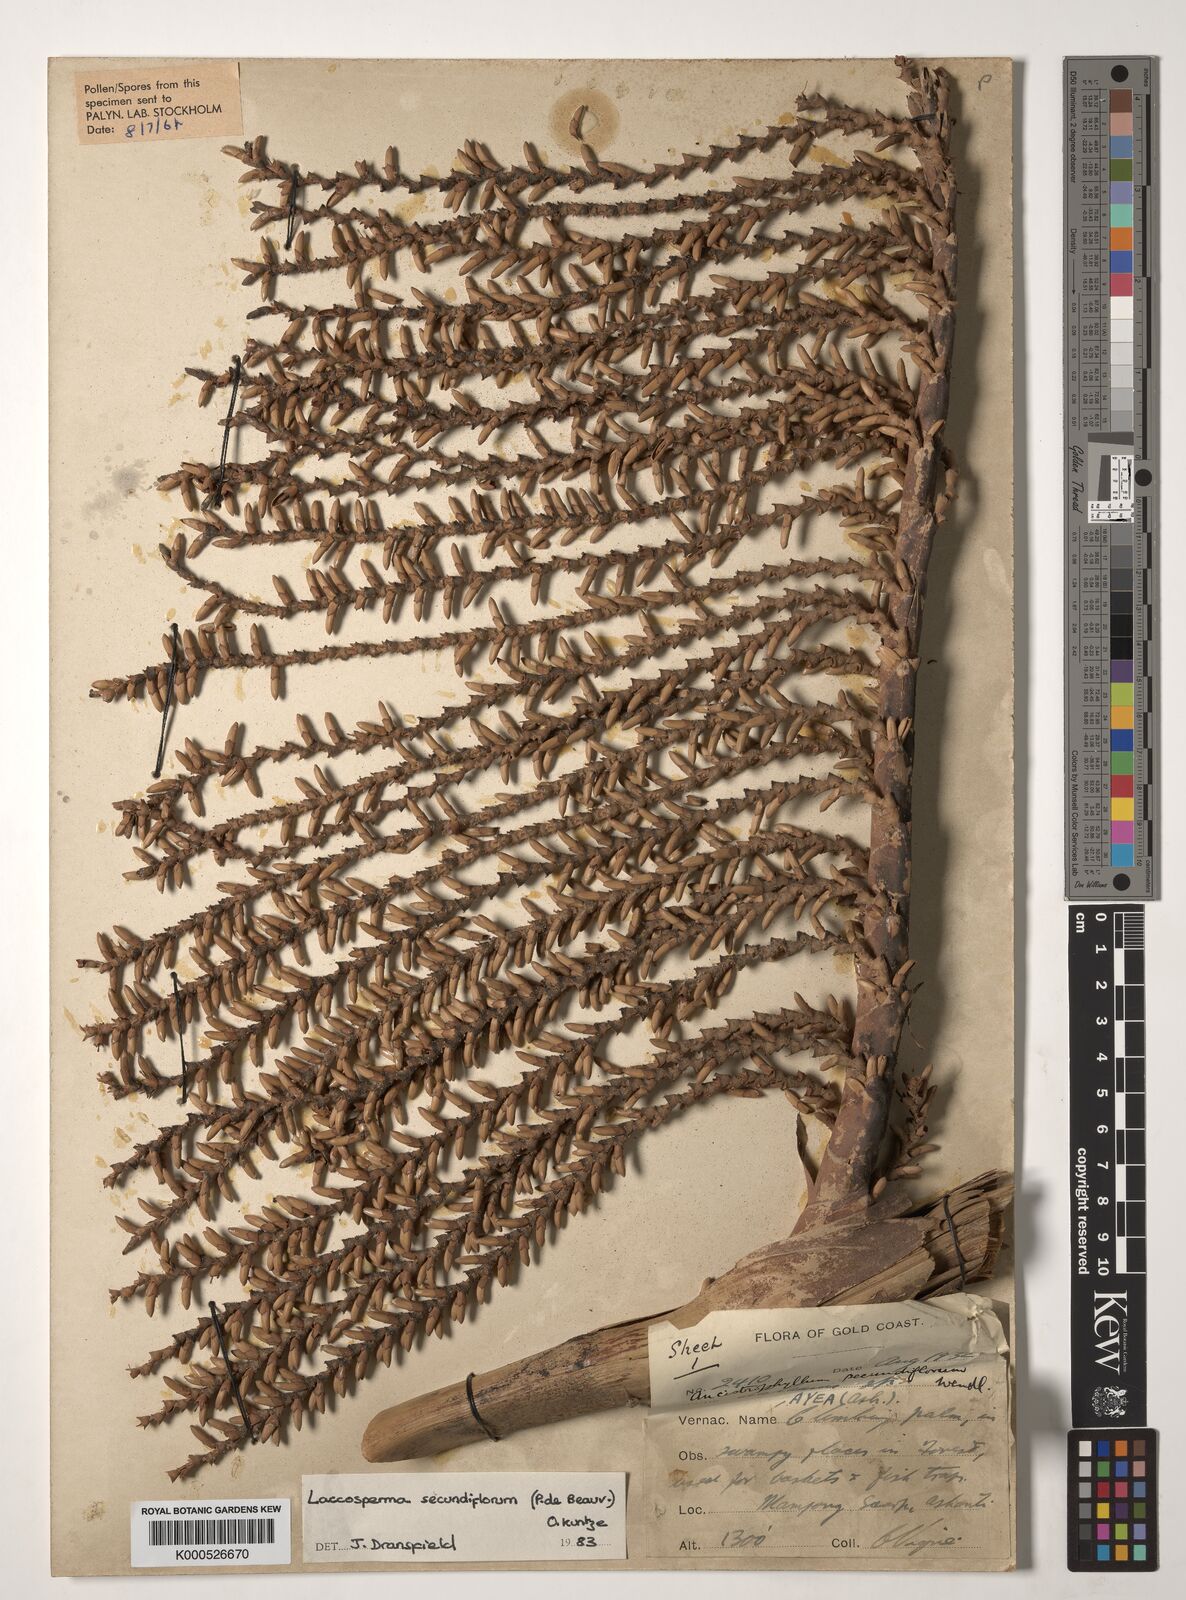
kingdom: Plantae
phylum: Tracheophyta
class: Liliopsida
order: Arecales
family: Arecaceae
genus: Laccosperma
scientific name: Laccosperma secundiflorum
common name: Rattan
